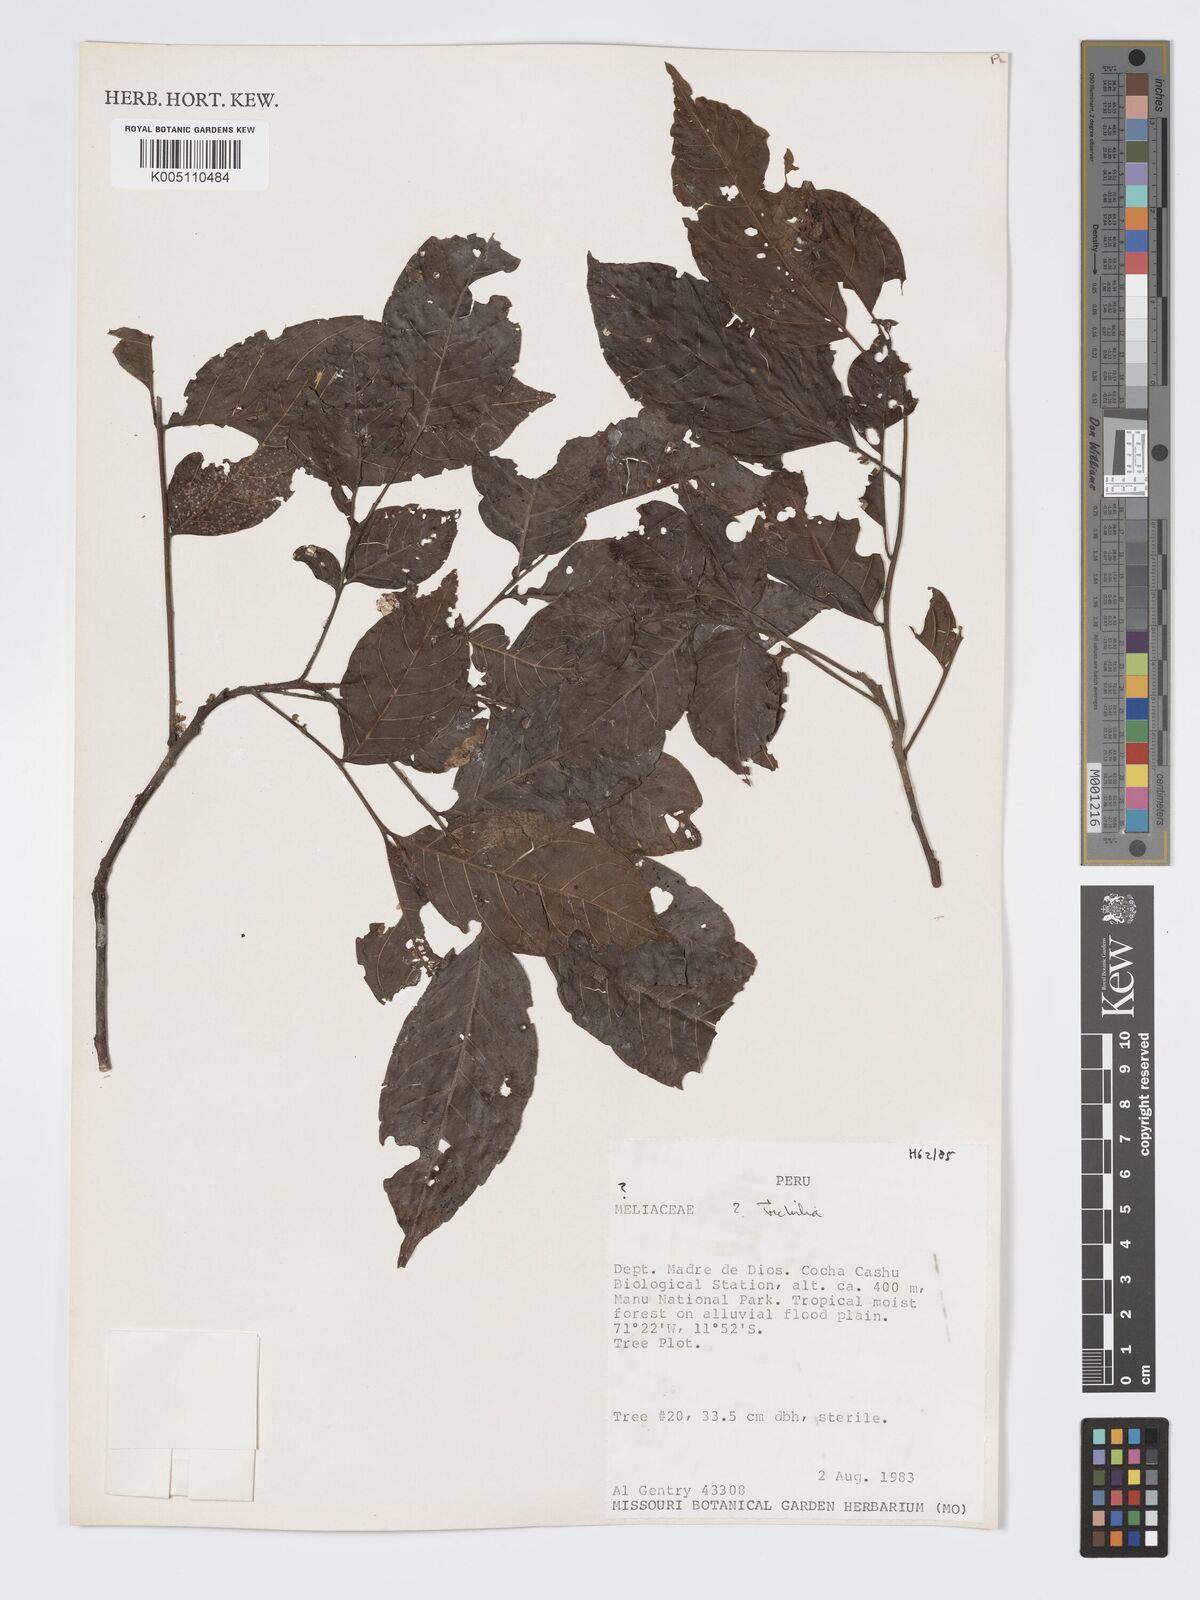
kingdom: Plantae
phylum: Tracheophyta
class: Magnoliopsida
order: Sapindales
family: Meliaceae
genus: Trichilia
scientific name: Trichilia
